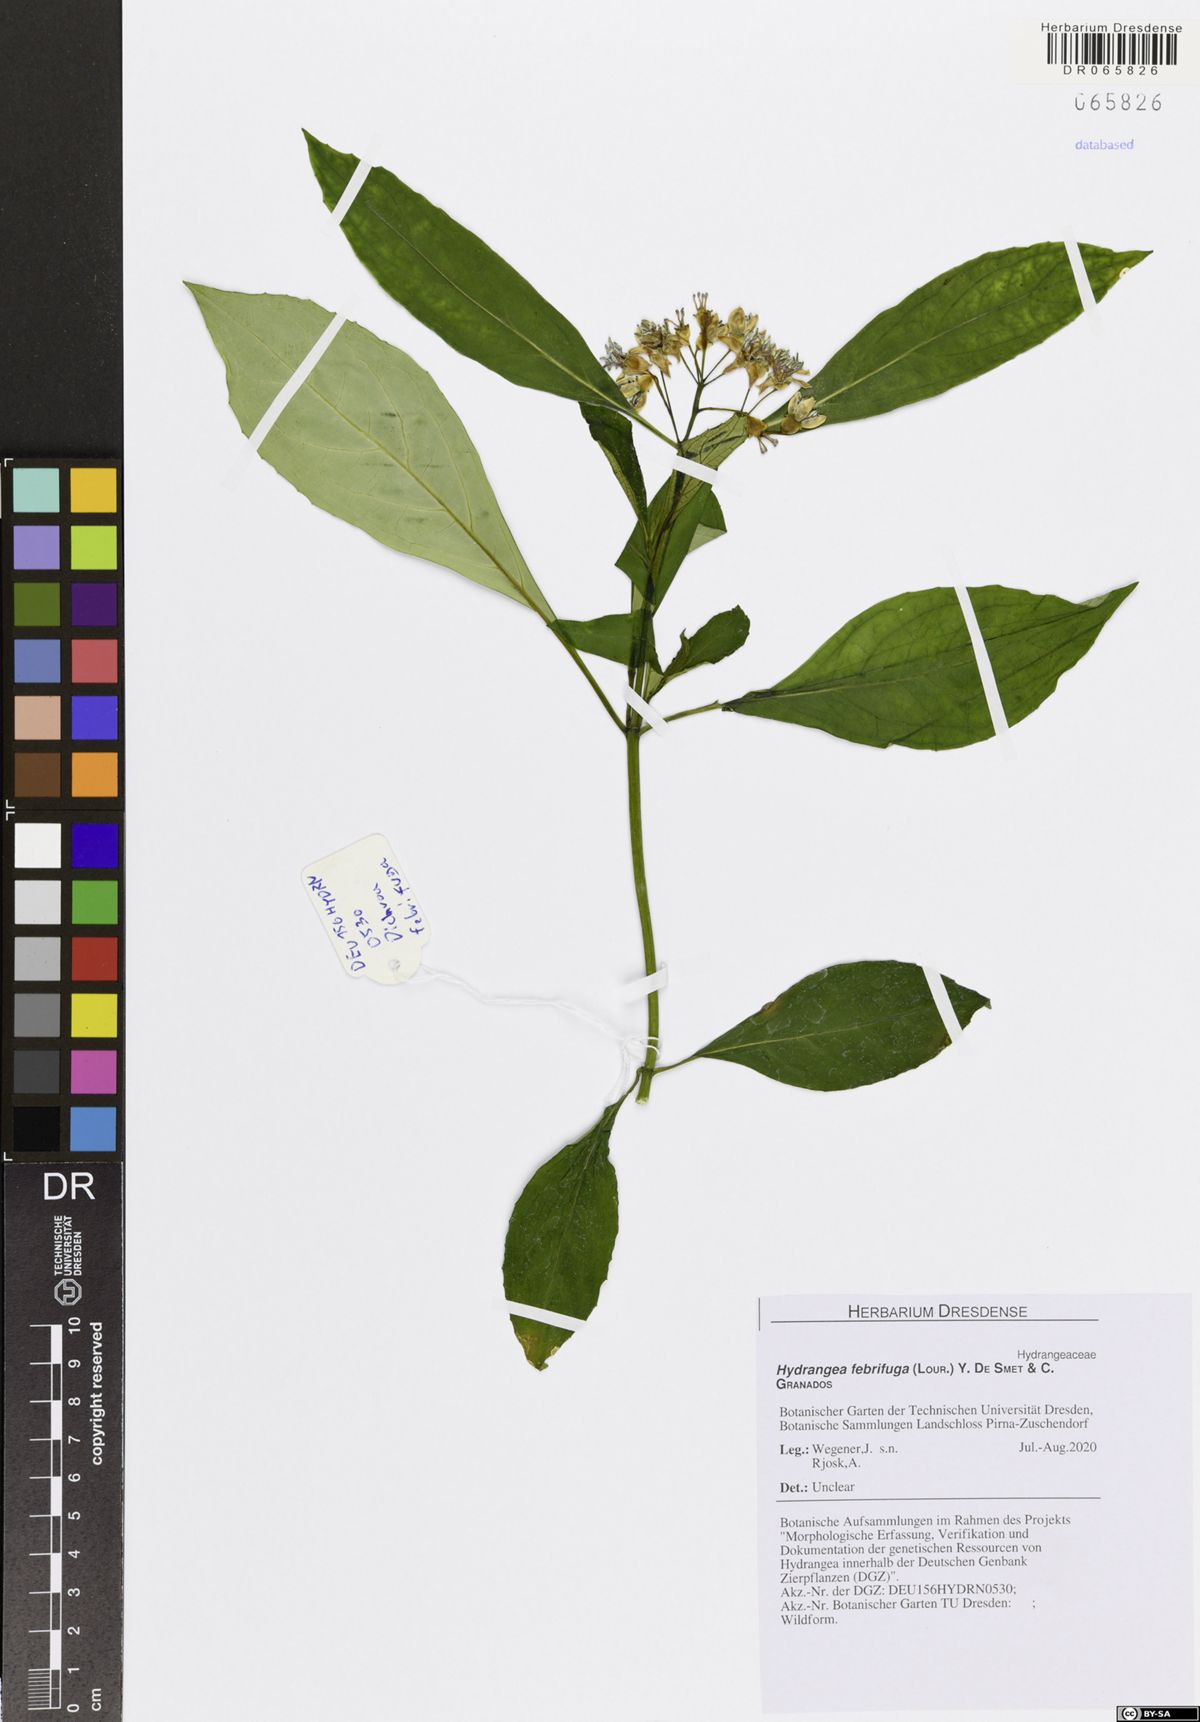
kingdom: Plantae
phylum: Tracheophyta
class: Magnoliopsida
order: Cornales
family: Hydrangeaceae
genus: Hydrangea
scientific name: Hydrangea febrifuga
